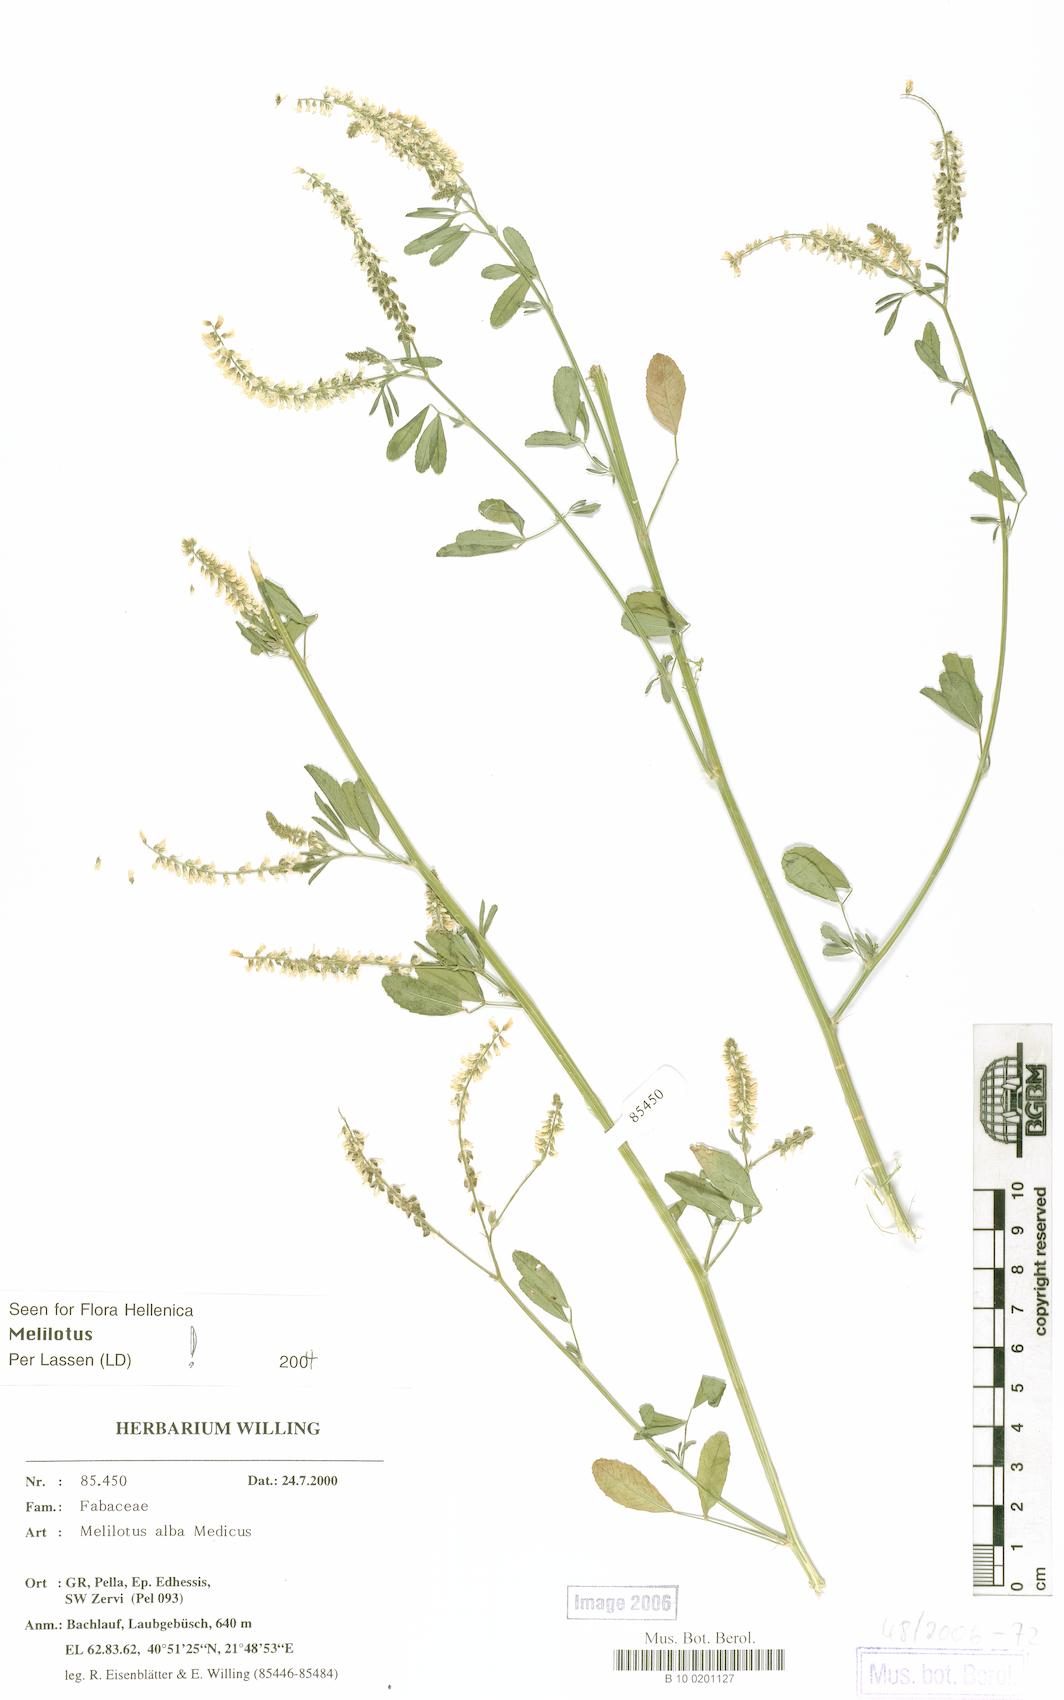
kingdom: Plantae
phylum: Tracheophyta
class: Magnoliopsida
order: Fabales
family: Fabaceae
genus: Melilotus
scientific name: Melilotus albus
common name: White melilot
